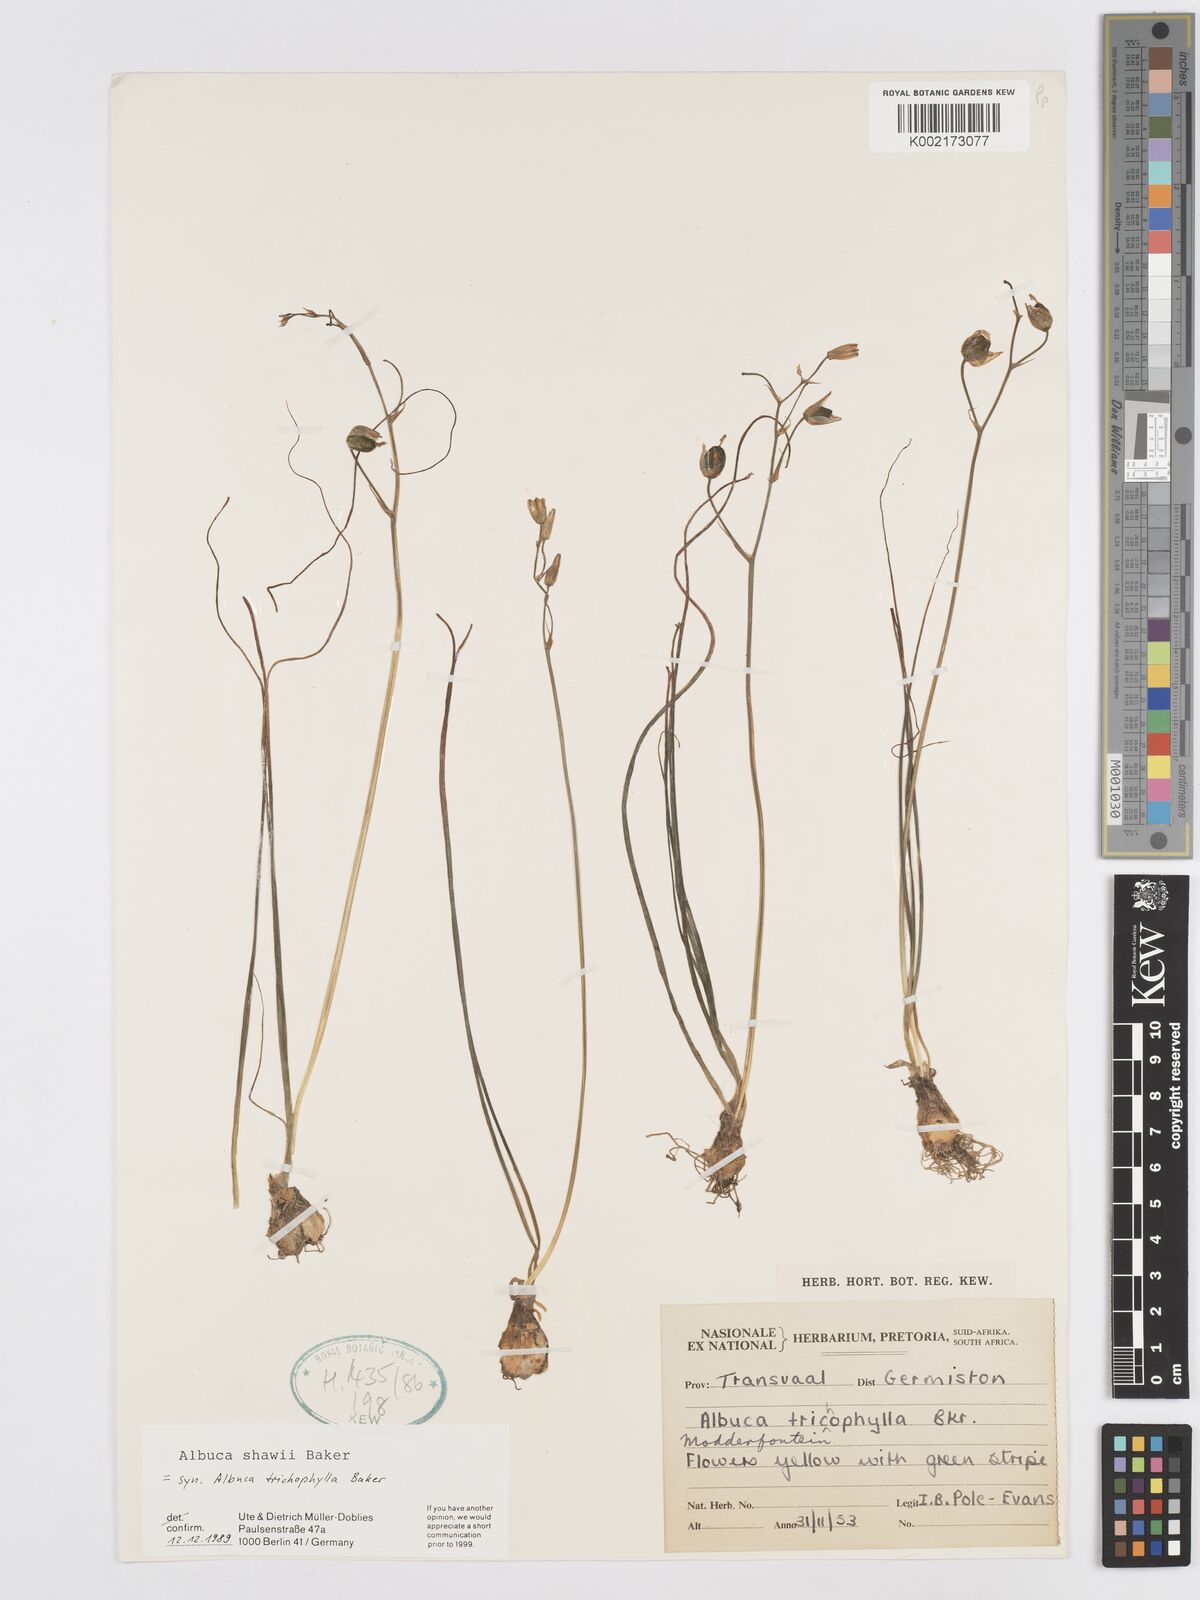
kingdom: Plantae
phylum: Tracheophyta
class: Liliopsida
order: Asparagales
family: Asparagaceae
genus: Albuca
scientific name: Albuca shawii
